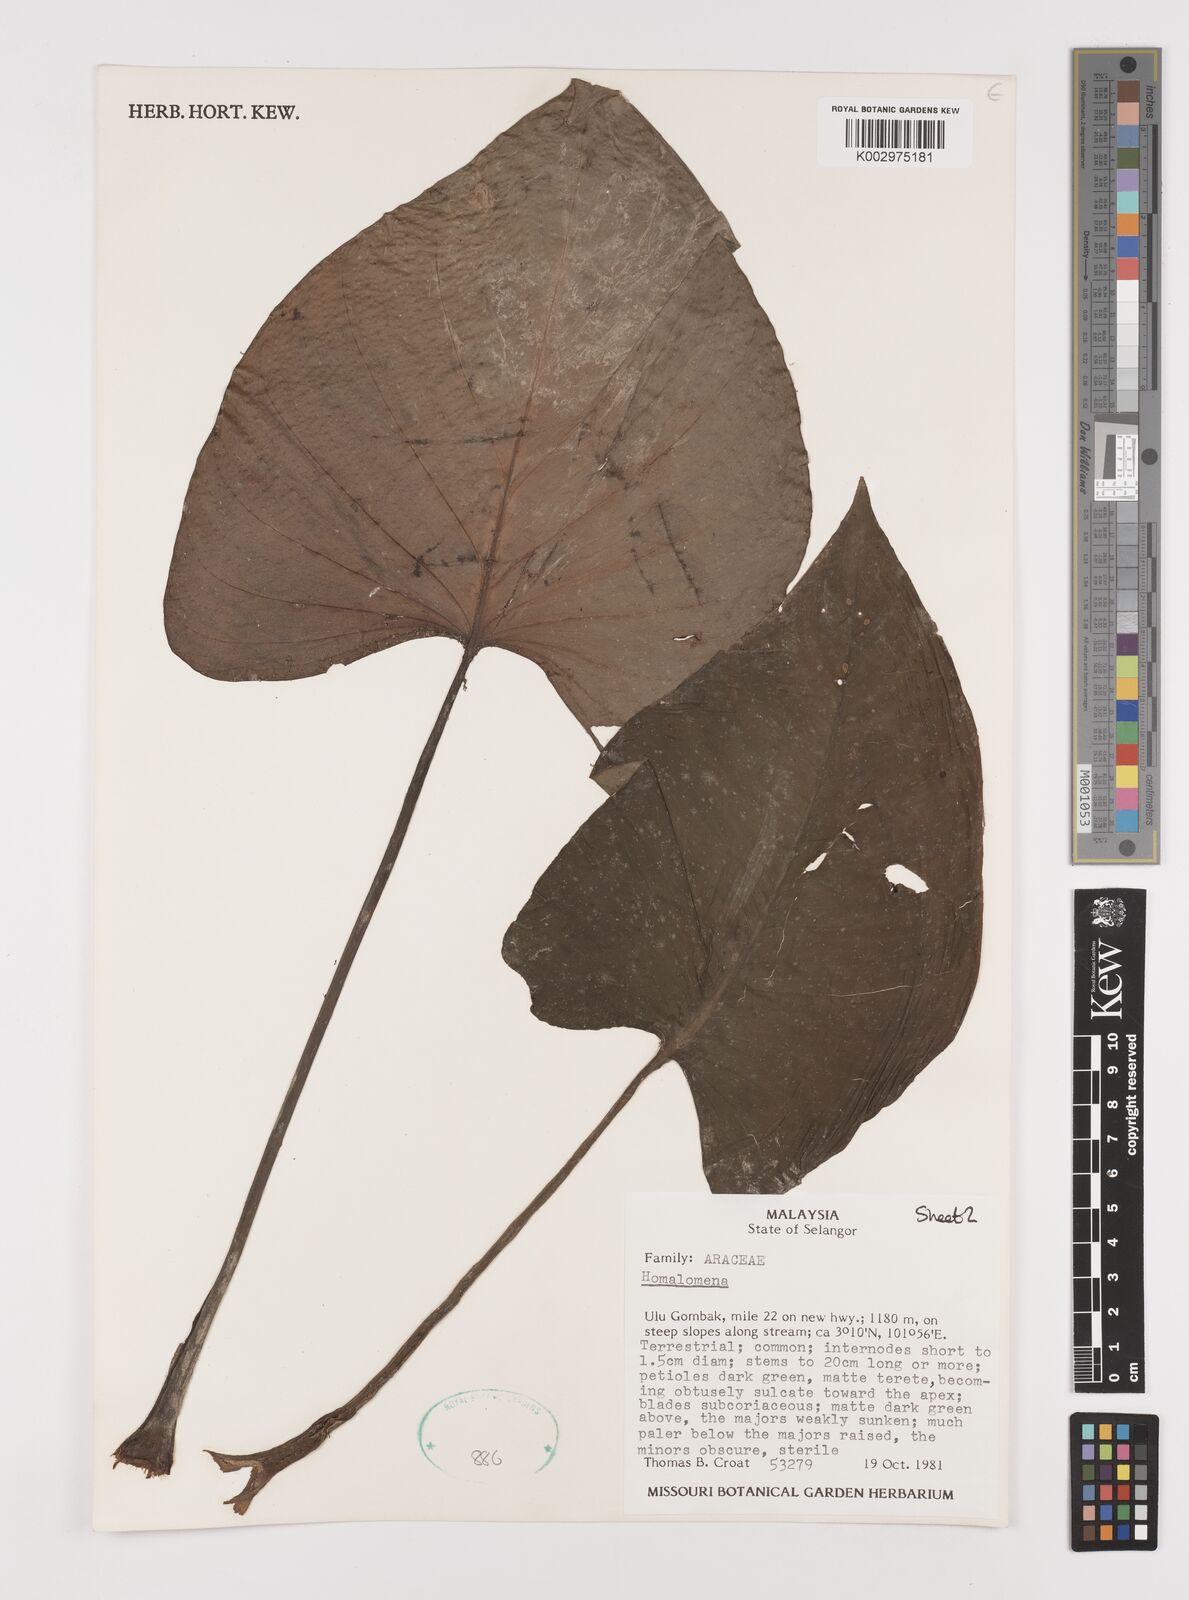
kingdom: Plantae
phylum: Tracheophyta
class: Liliopsida
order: Alismatales
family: Araceae
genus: Homalomena
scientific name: Homalomena
